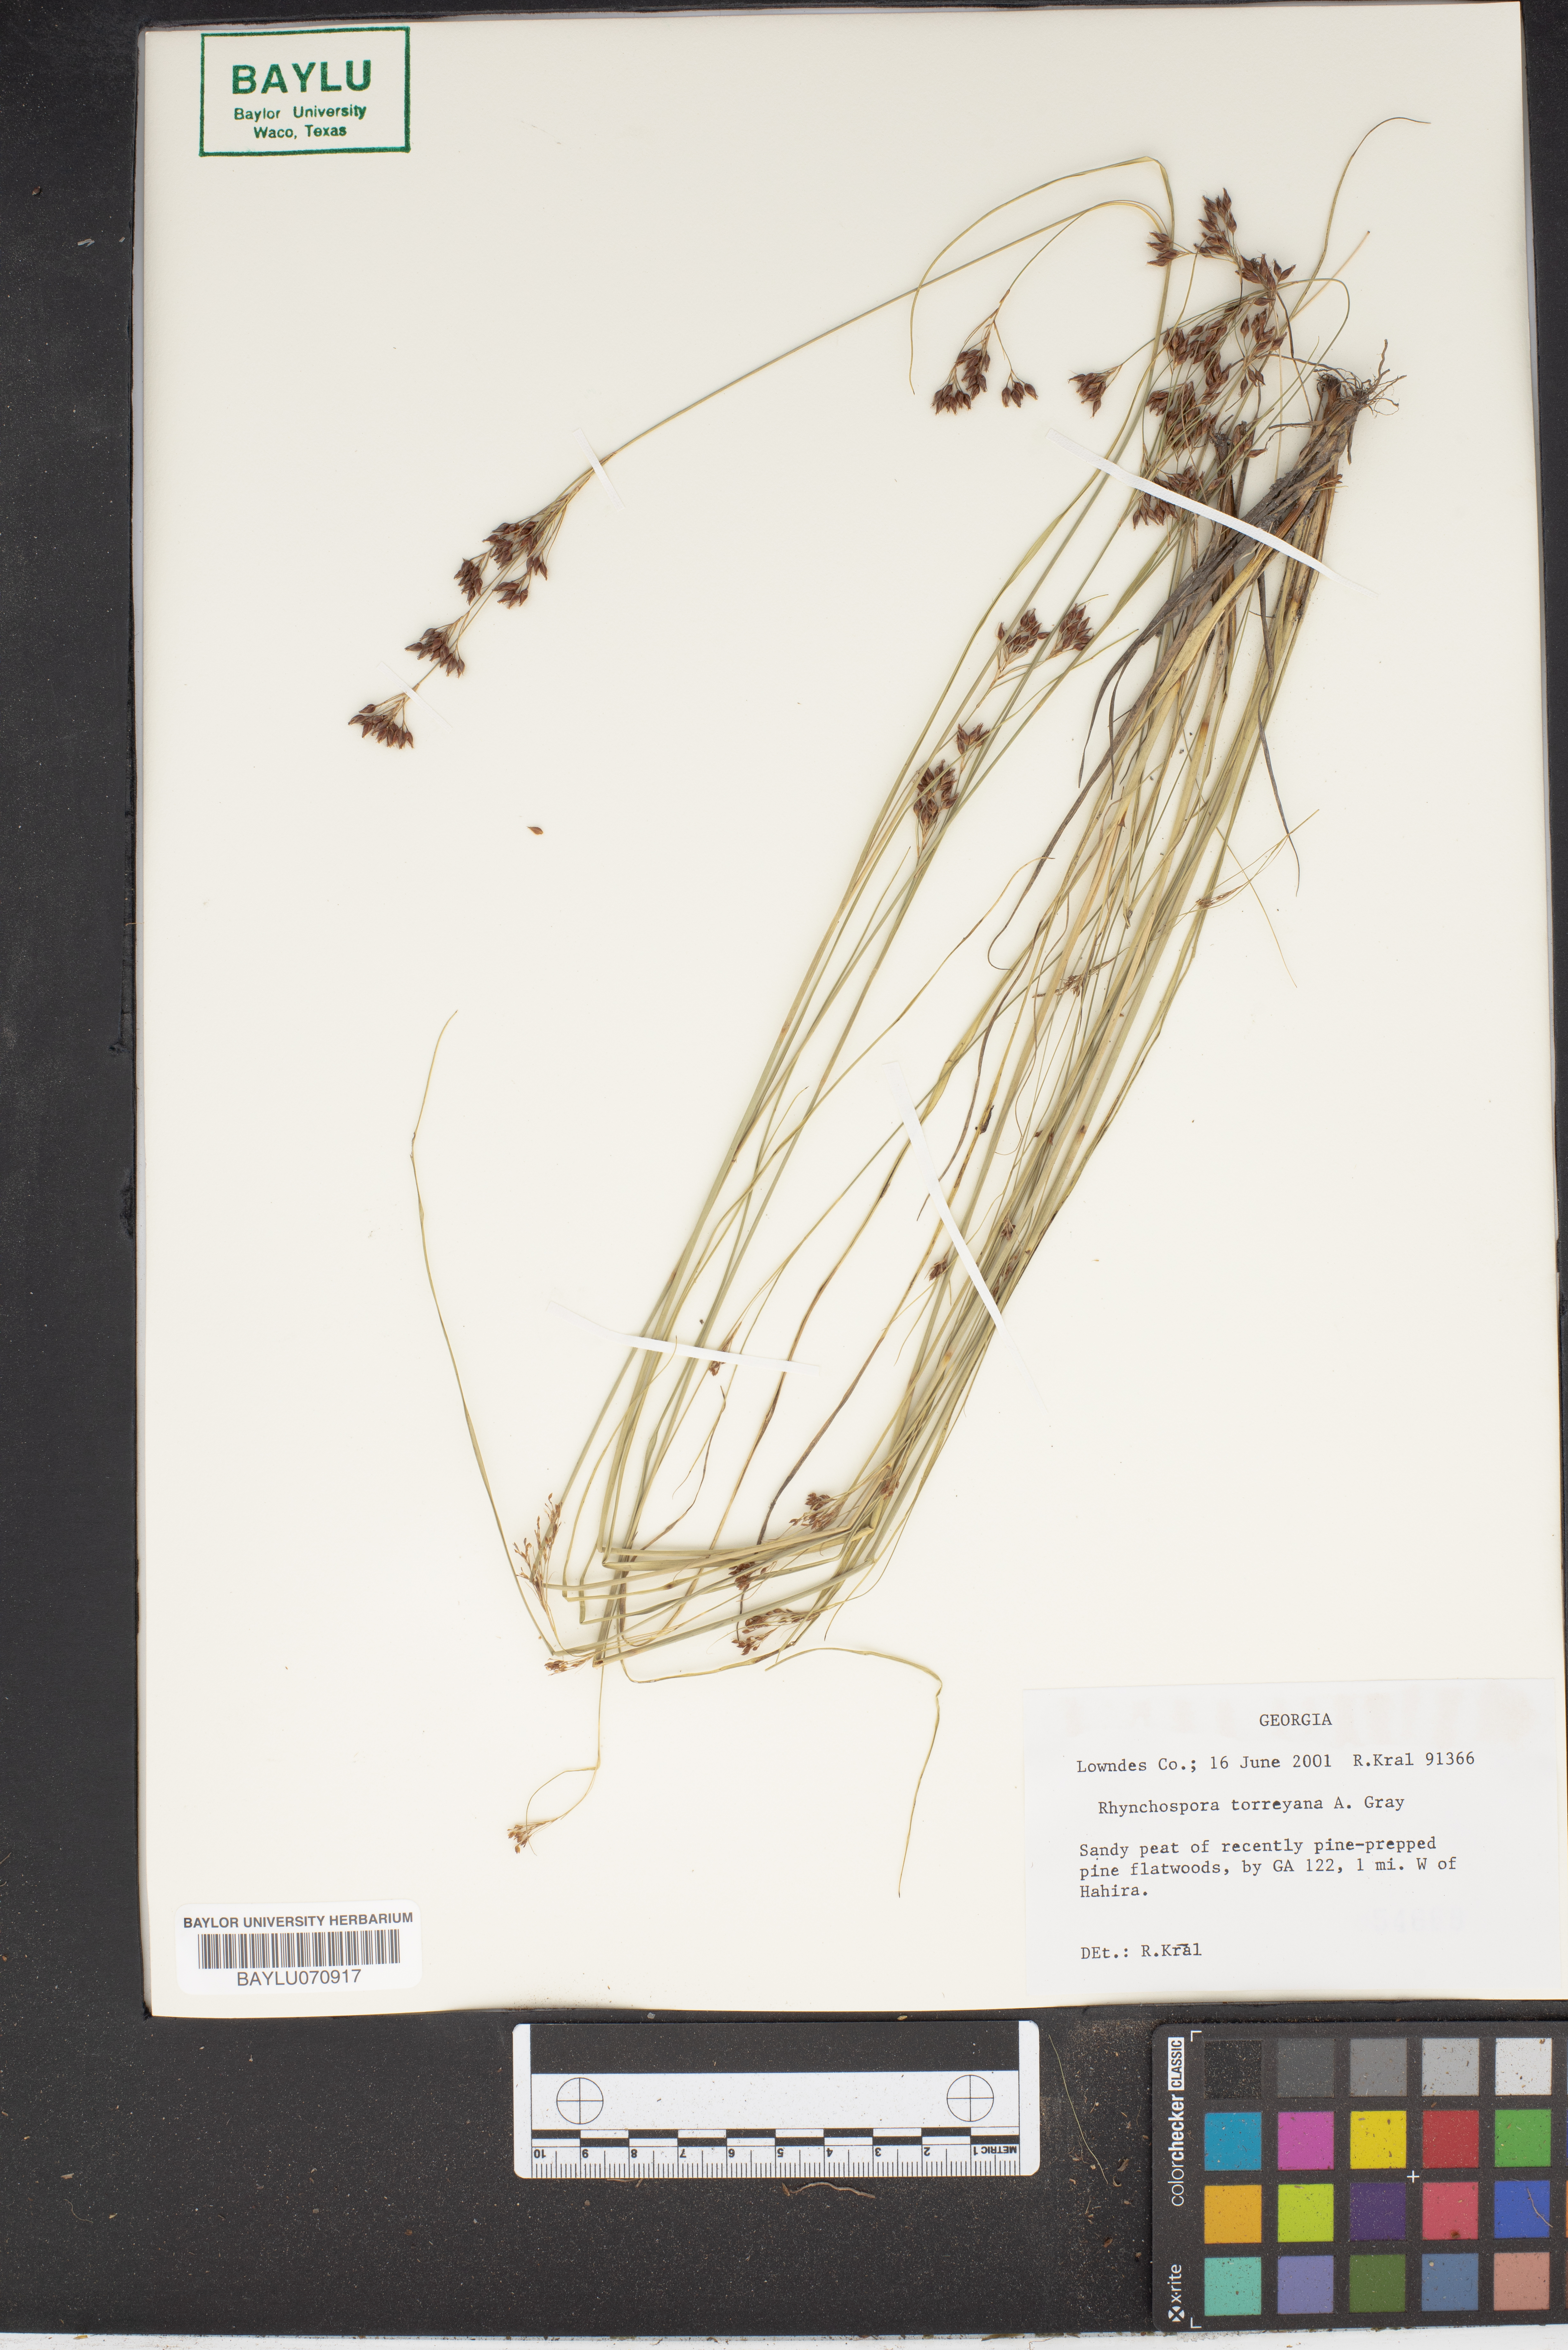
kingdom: Plantae
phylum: Tracheophyta
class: Liliopsida
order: Poales
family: Cyperaceae
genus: Rhynchospora
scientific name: Rhynchospora torreyana
